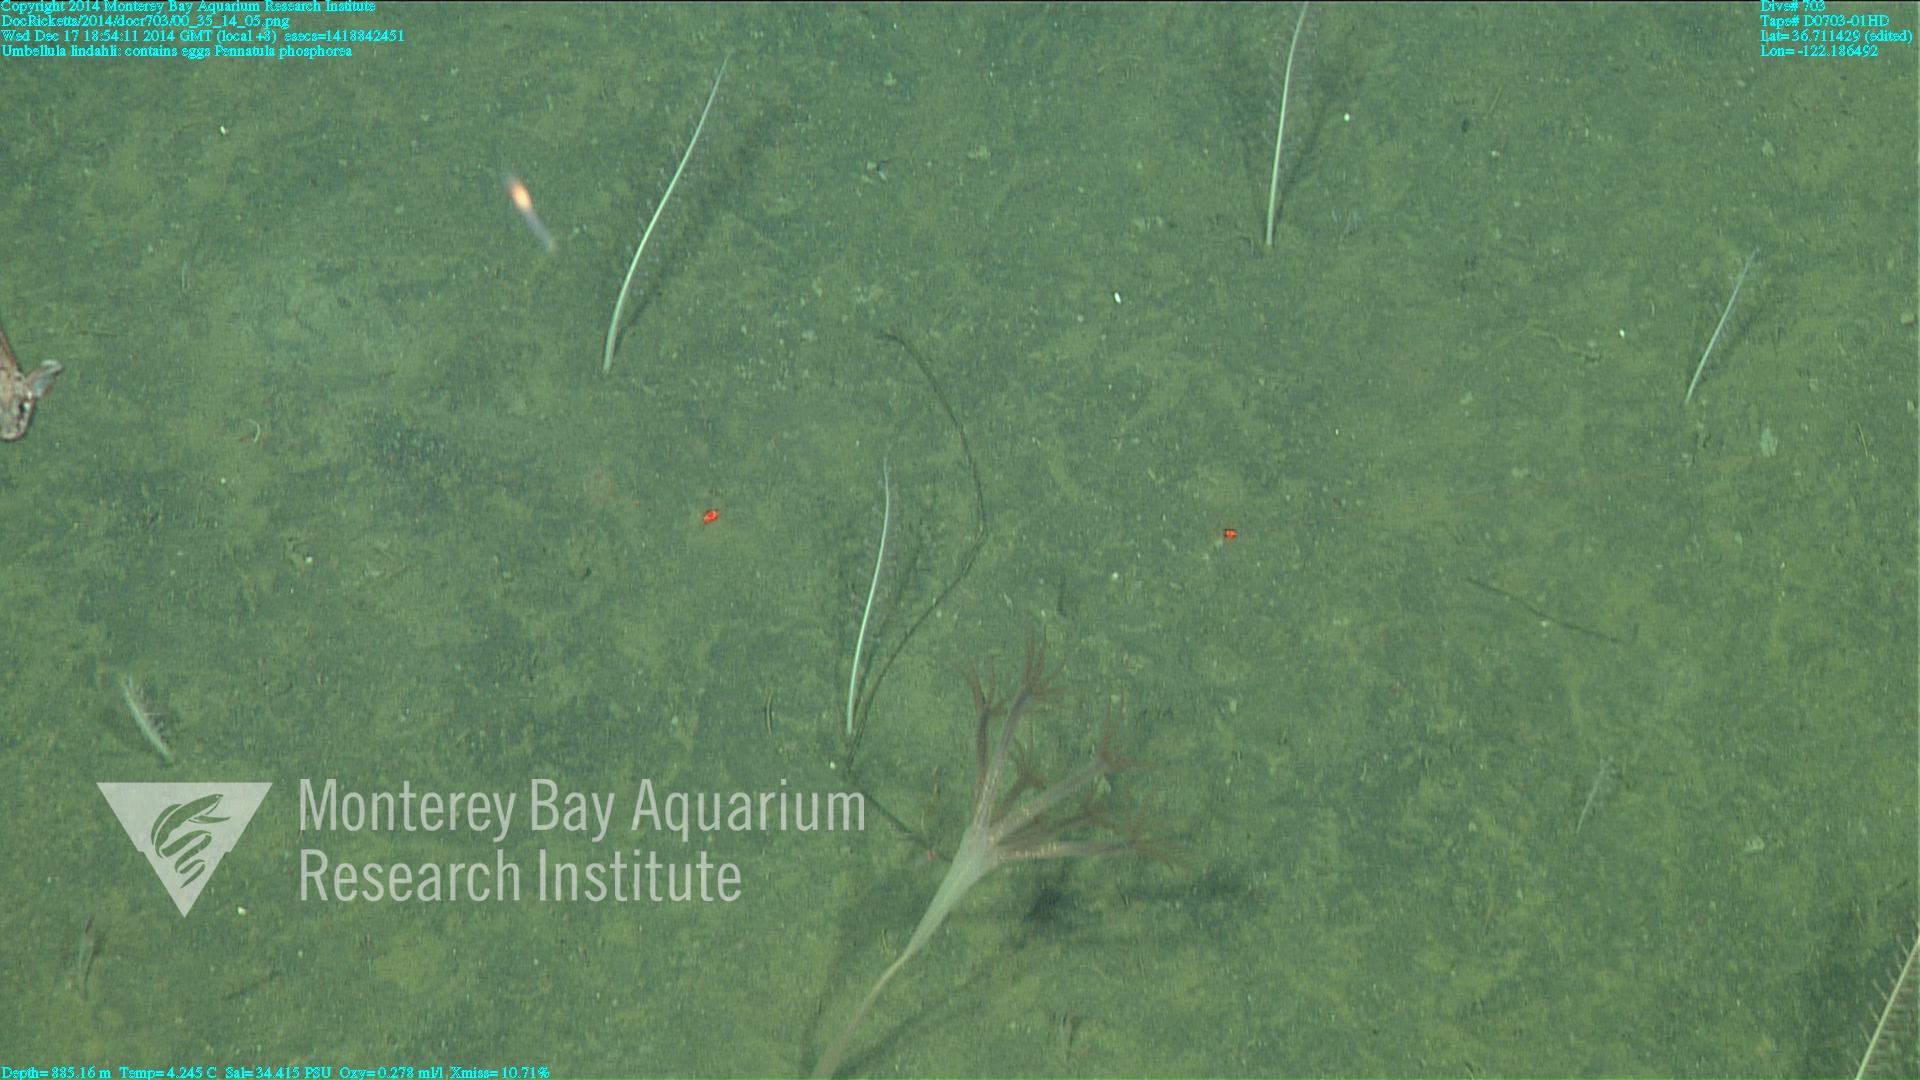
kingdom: Animalia
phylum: Cnidaria
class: Anthozoa
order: Scleralcyonacea
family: Pennatulidae
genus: Pennatula
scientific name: Pennatula phosphorea
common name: Phosphorescent sea pen
